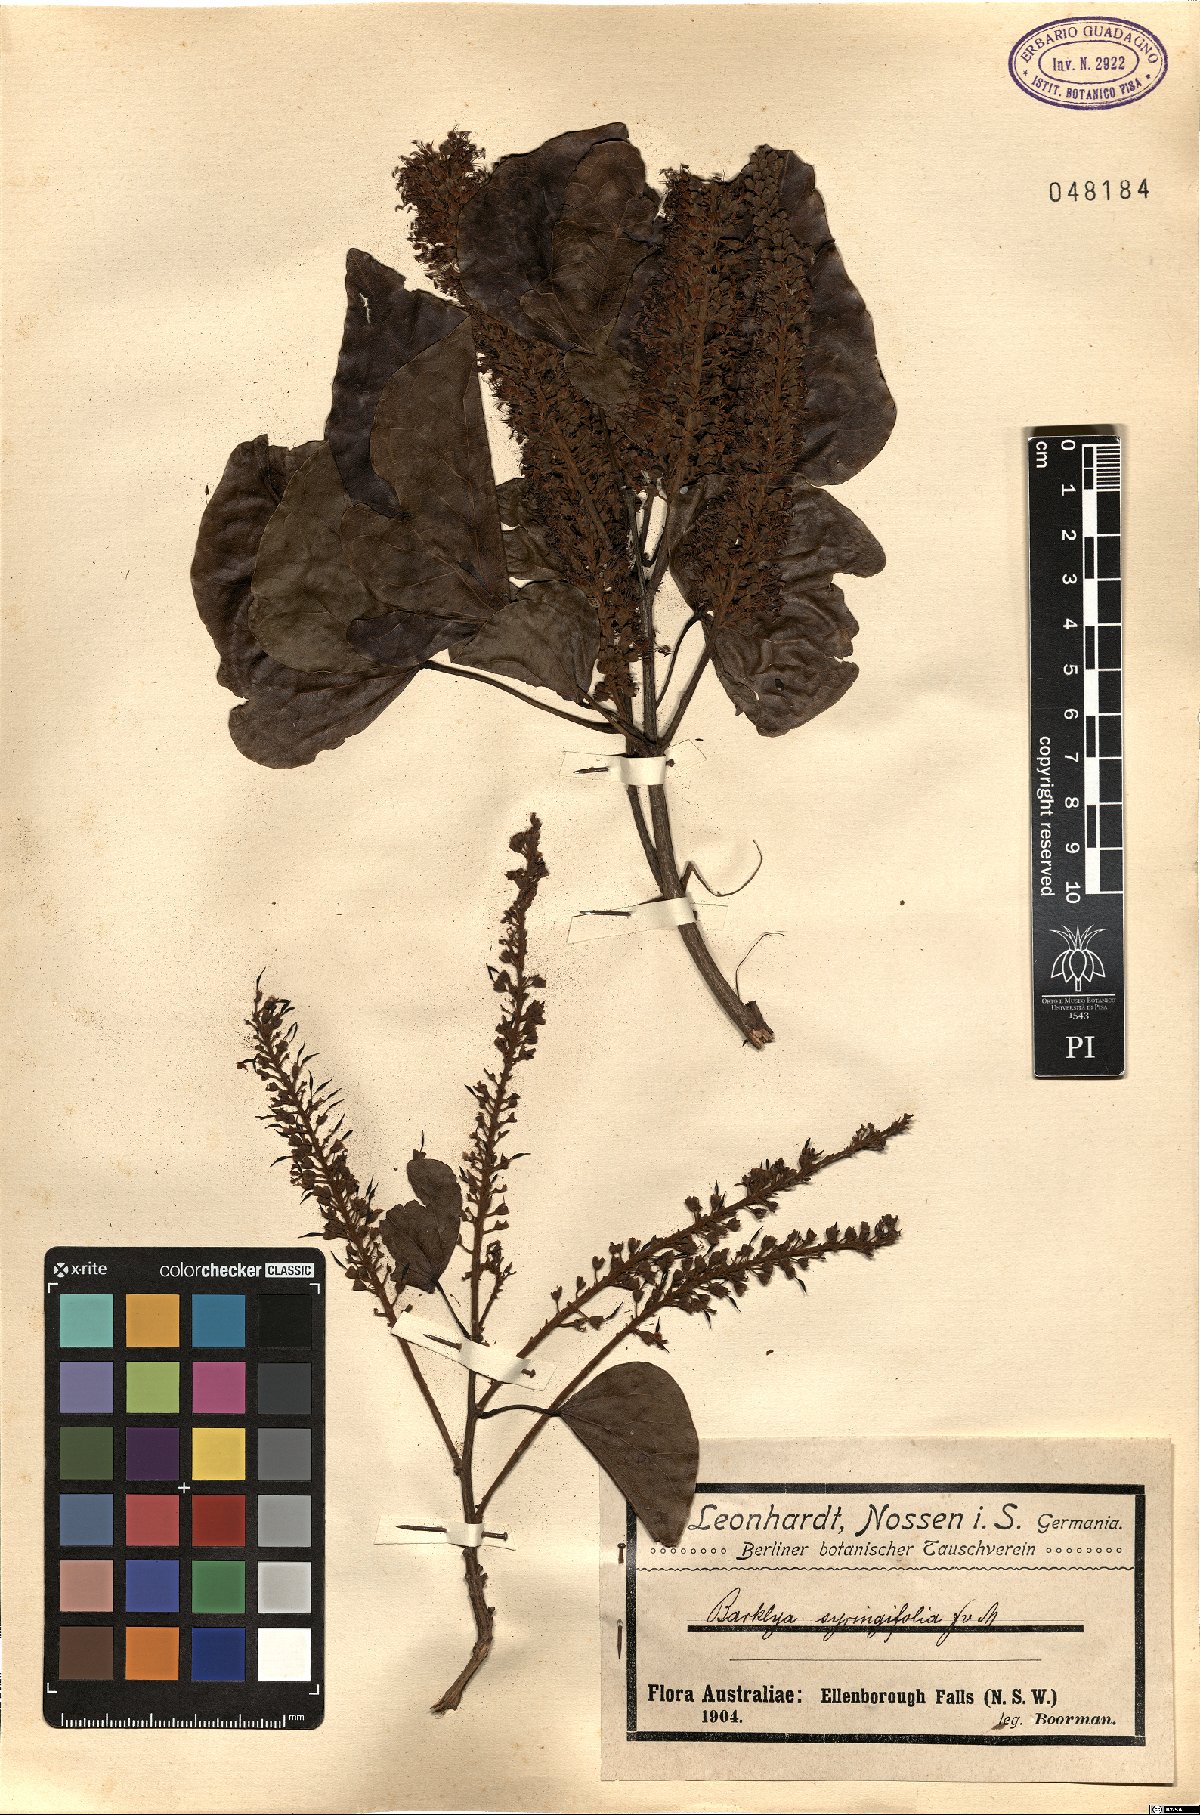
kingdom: Plantae
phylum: Tracheophyta
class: Magnoliopsida
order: Fabales
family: Fabaceae
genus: Barklya
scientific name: Barklya syringifolia
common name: Crown-of-gold-tree
